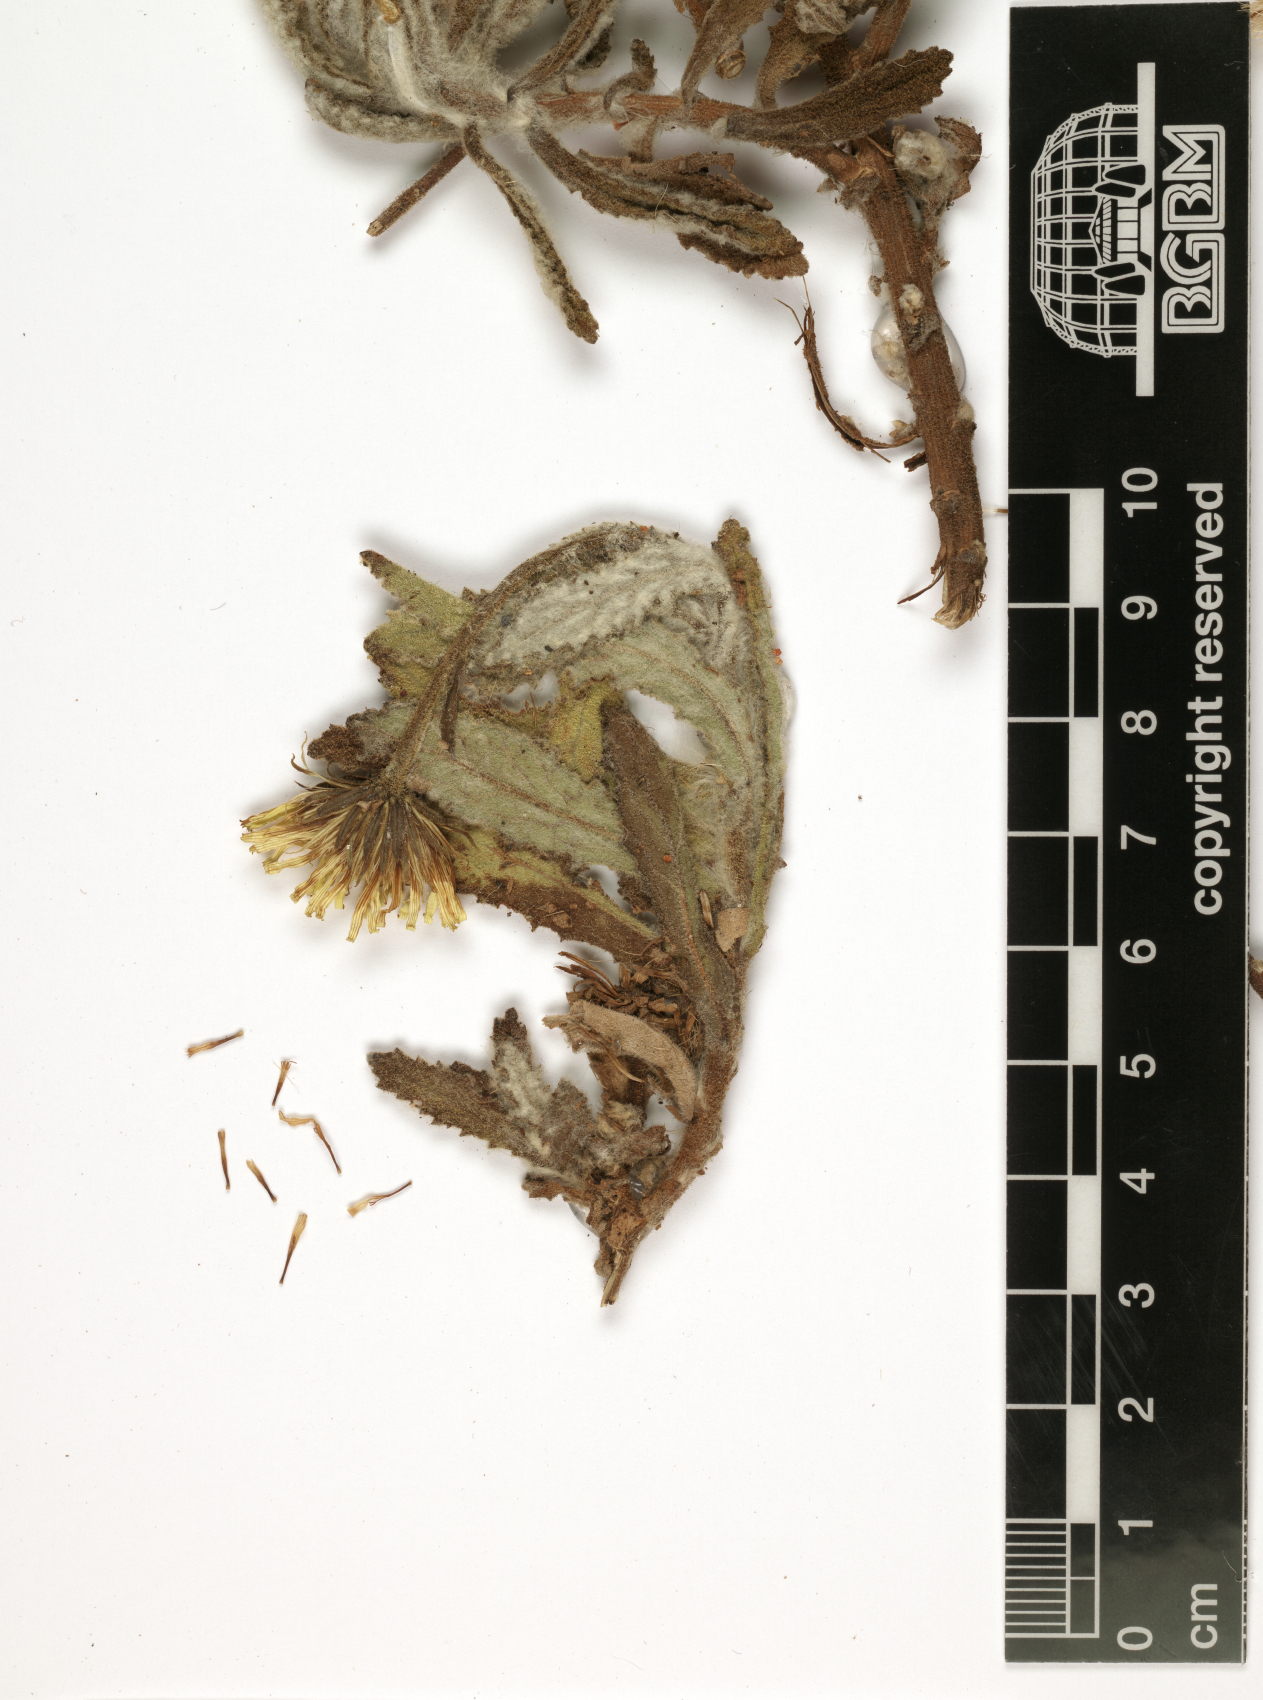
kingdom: Plantae
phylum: Tracheophyta
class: Magnoliopsida
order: Asterales
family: Asteraceae
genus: Pulicaria
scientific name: Pulicaria lanata
